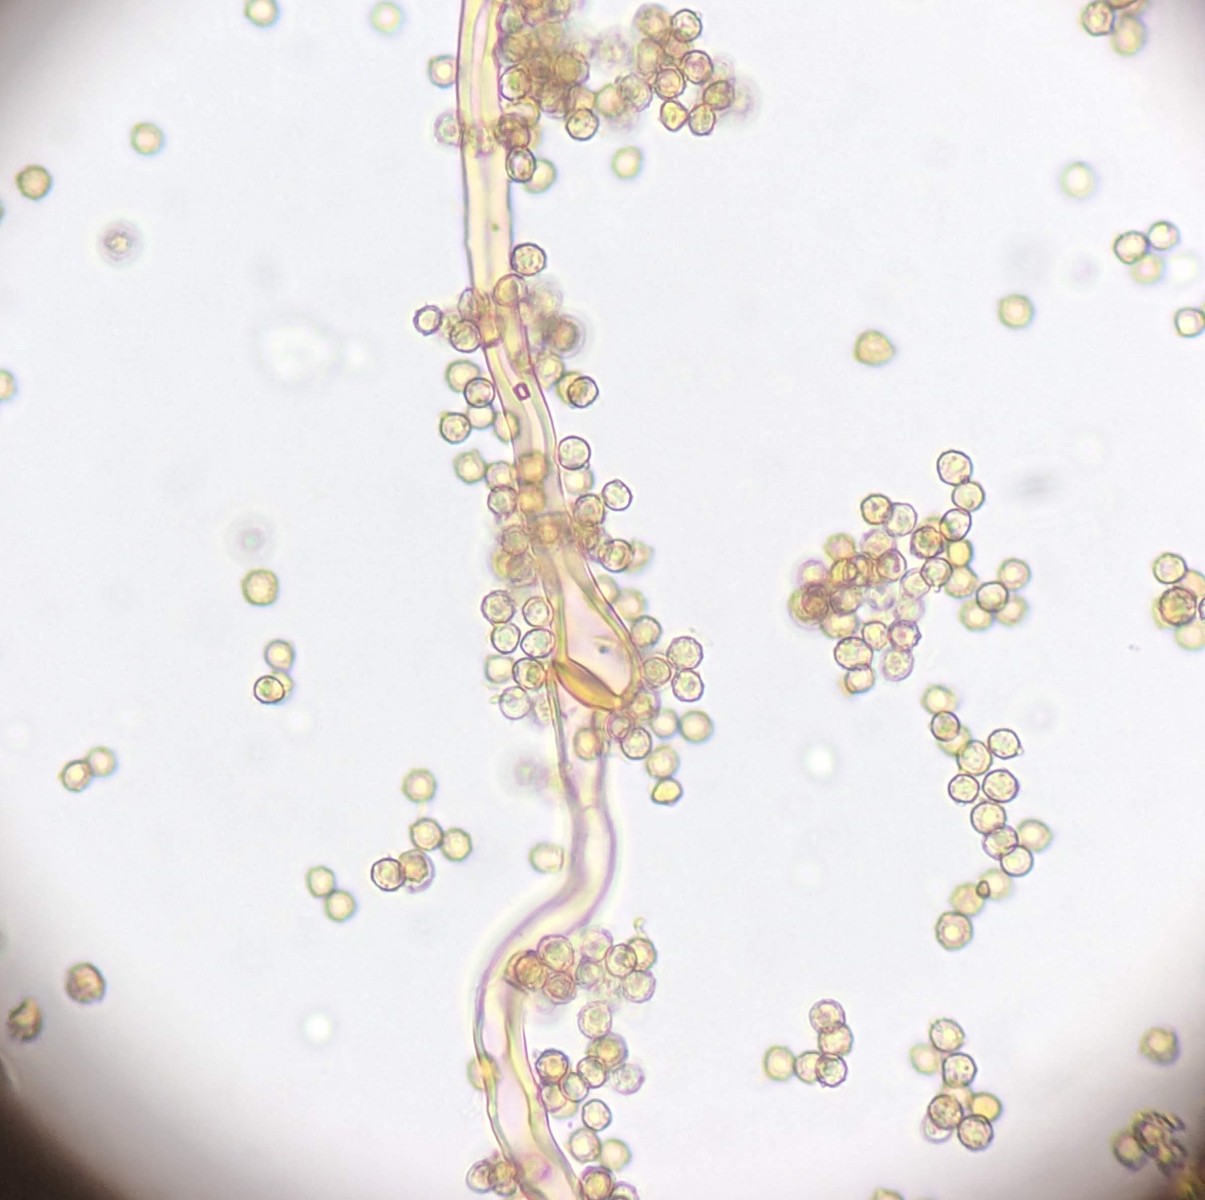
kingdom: Fungi
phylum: Basidiomycota
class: Agaricomycetes
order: Agaricales
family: Agaricaceae
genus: Tulostoma
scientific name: Tulostoma kotlabae
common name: gråhvid stilkbovist
